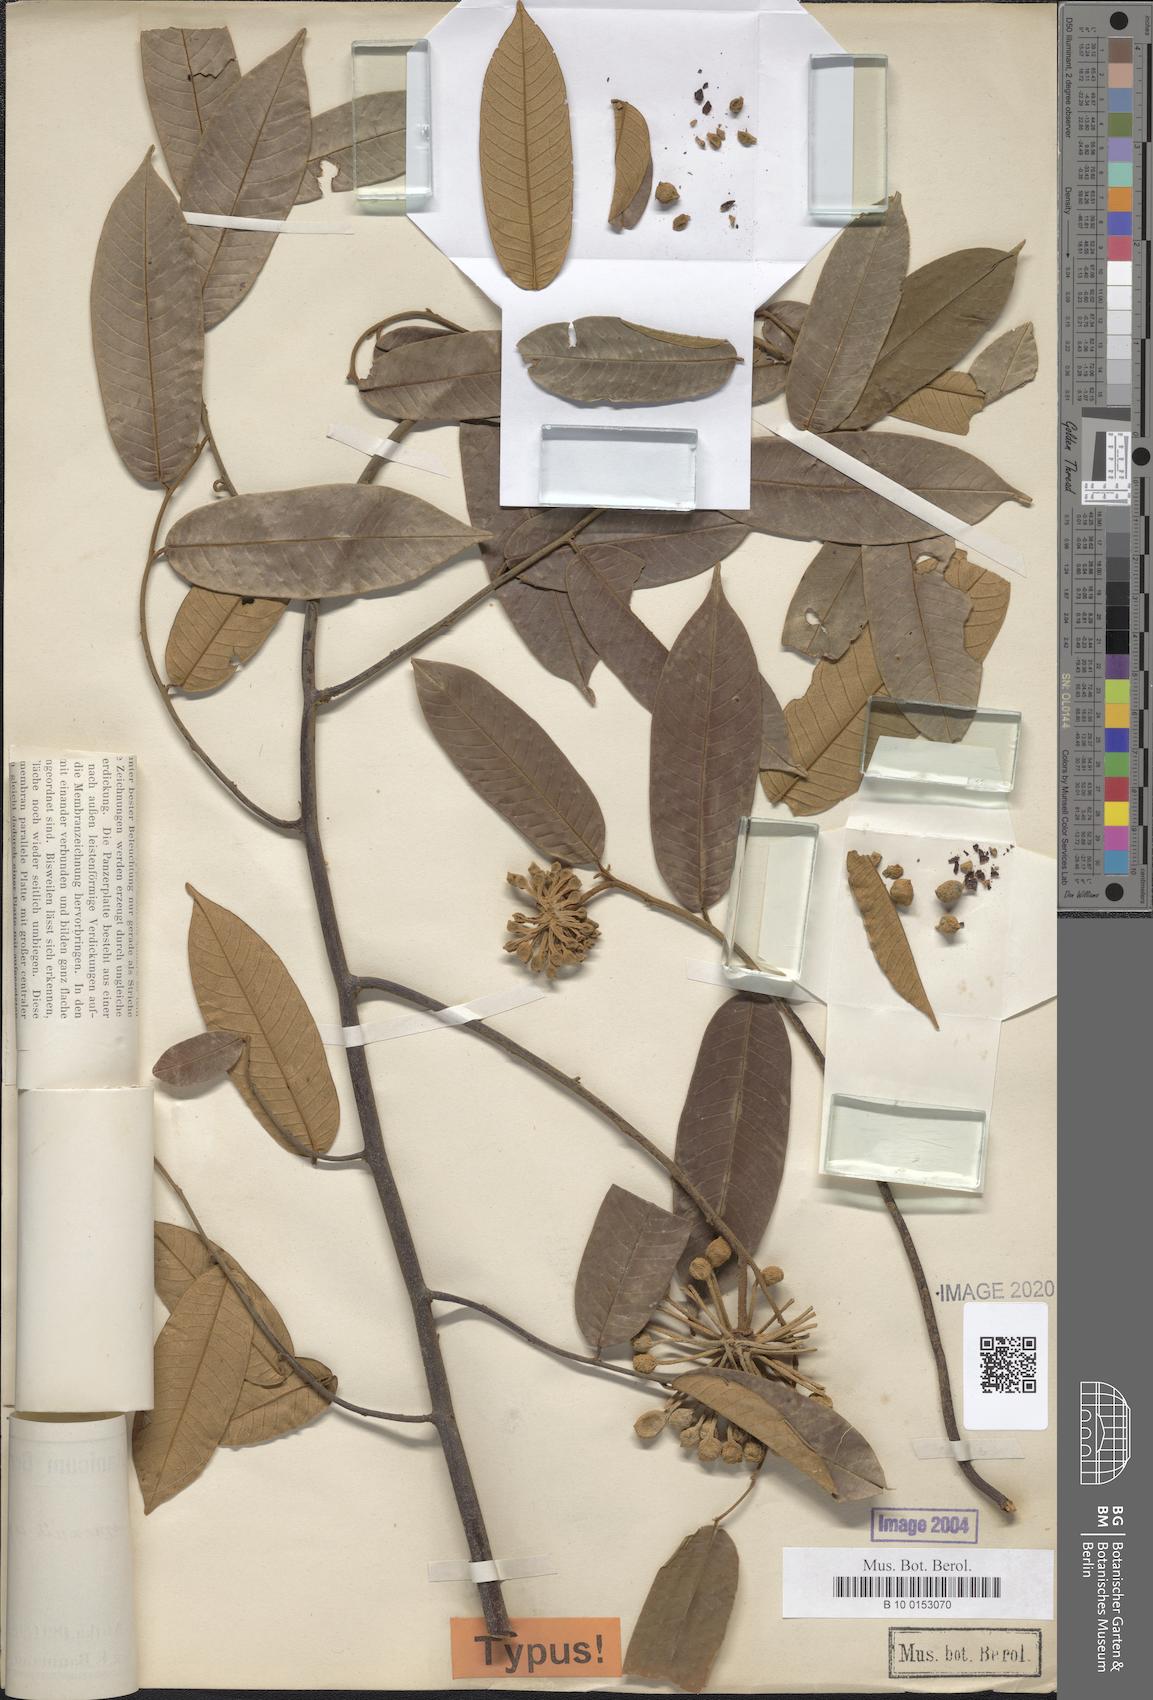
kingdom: Plantae
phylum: Tracheophyta
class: Magnoliopsida
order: Magnoliales
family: Annonaceae
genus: Uvaria
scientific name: Uvaria baumannii
